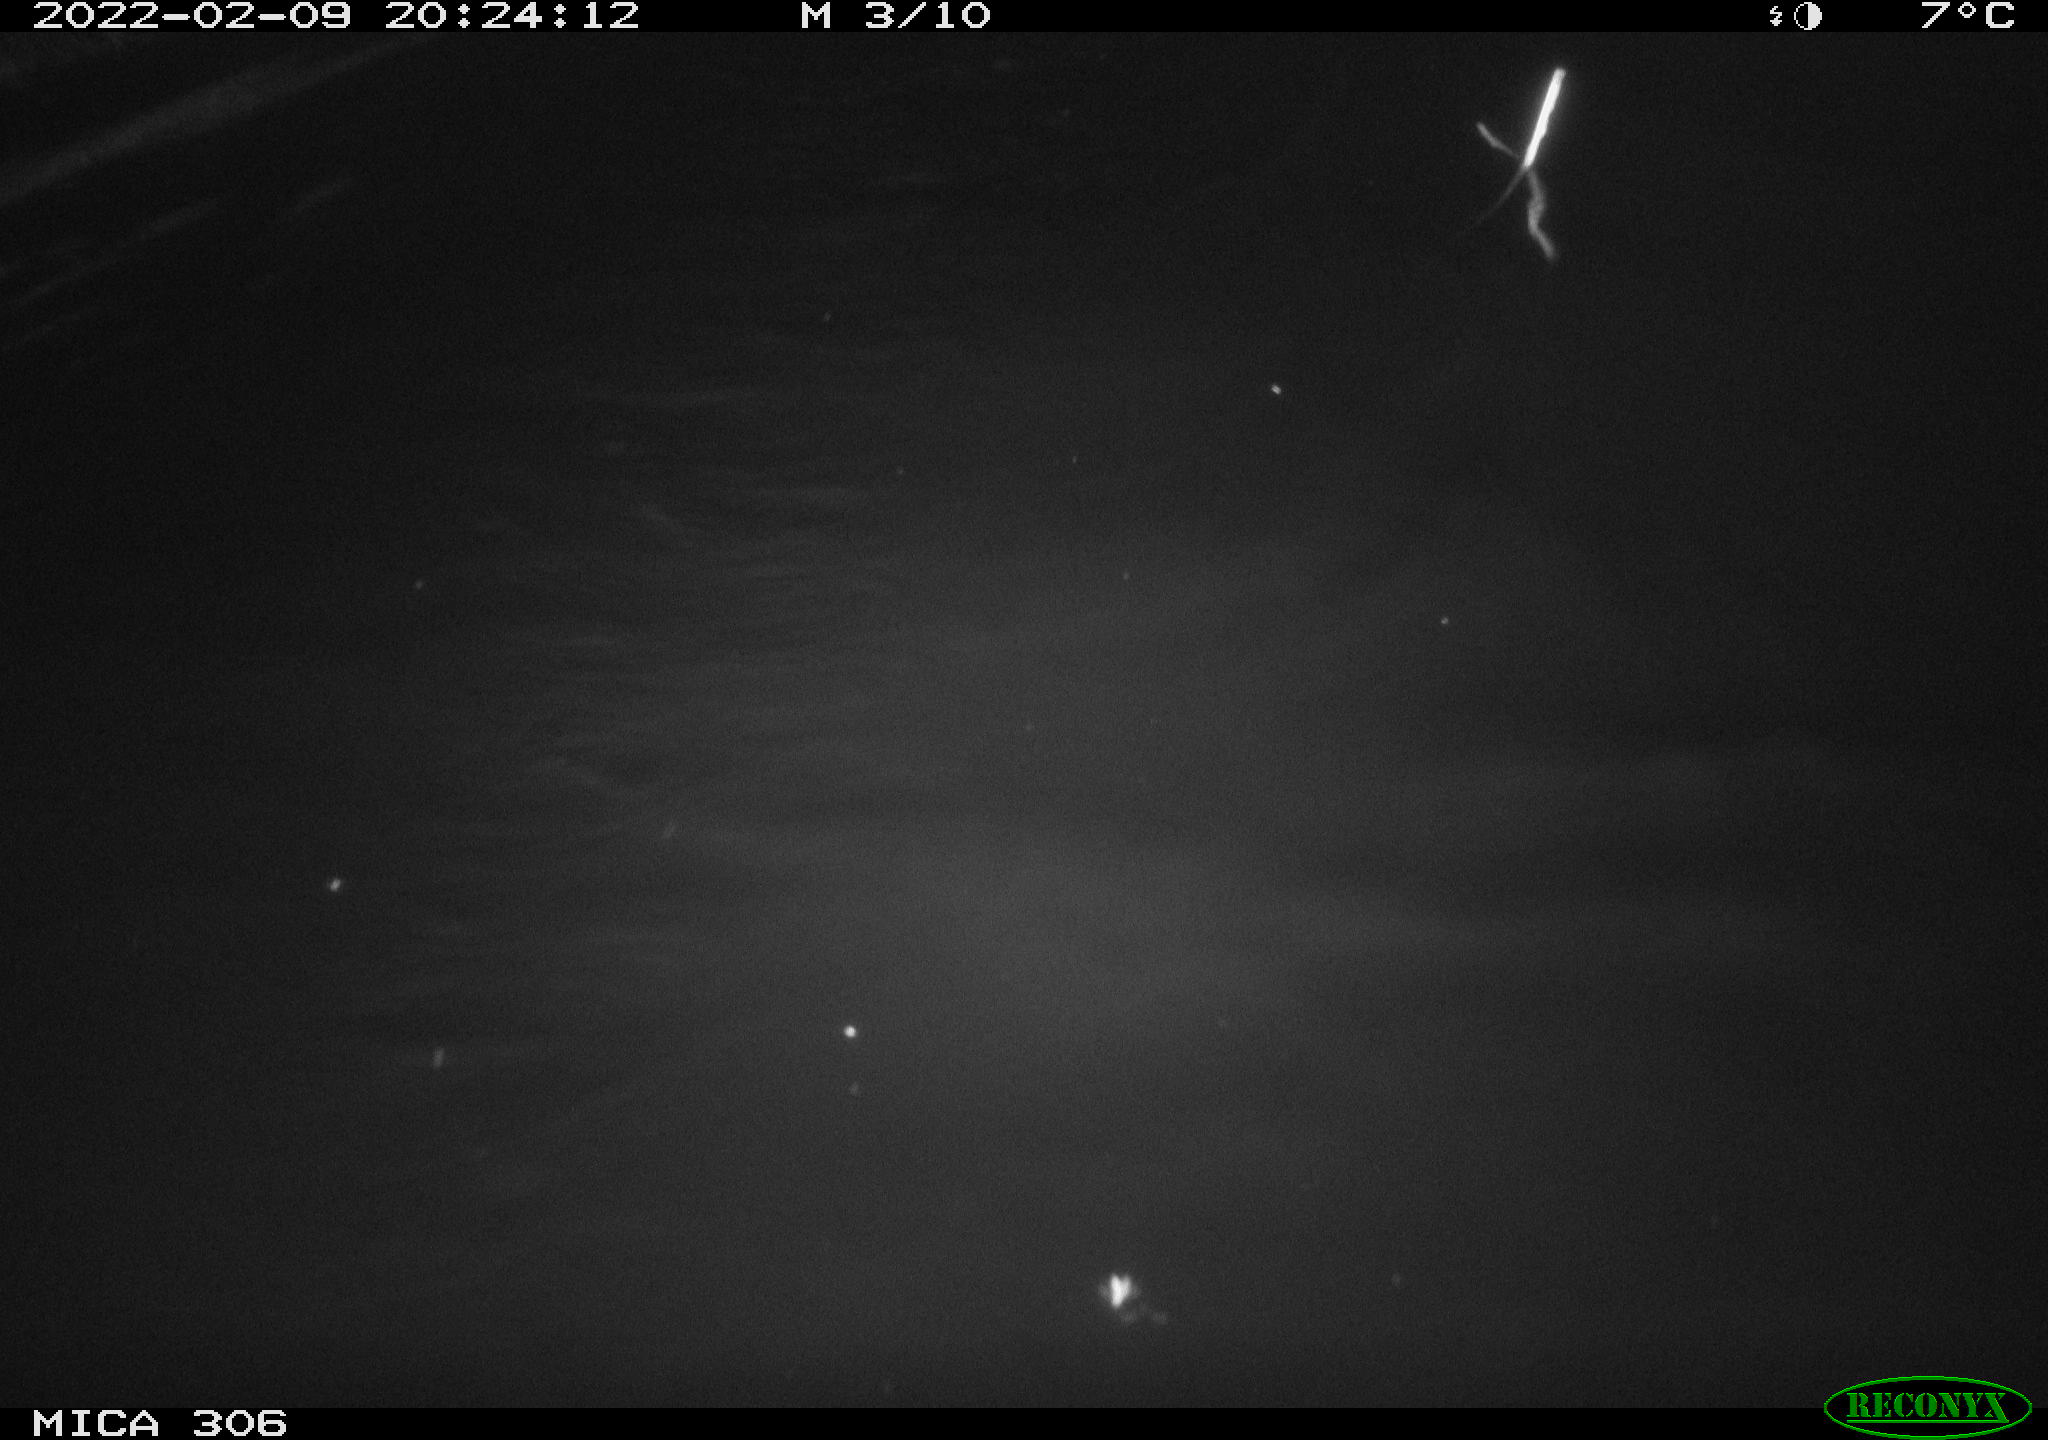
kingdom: Animalia
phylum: Chordata
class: Mammalia
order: Rodentia
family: Cricetidae
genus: Ondatra
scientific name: Ondatra zibethicus
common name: Muskrat
